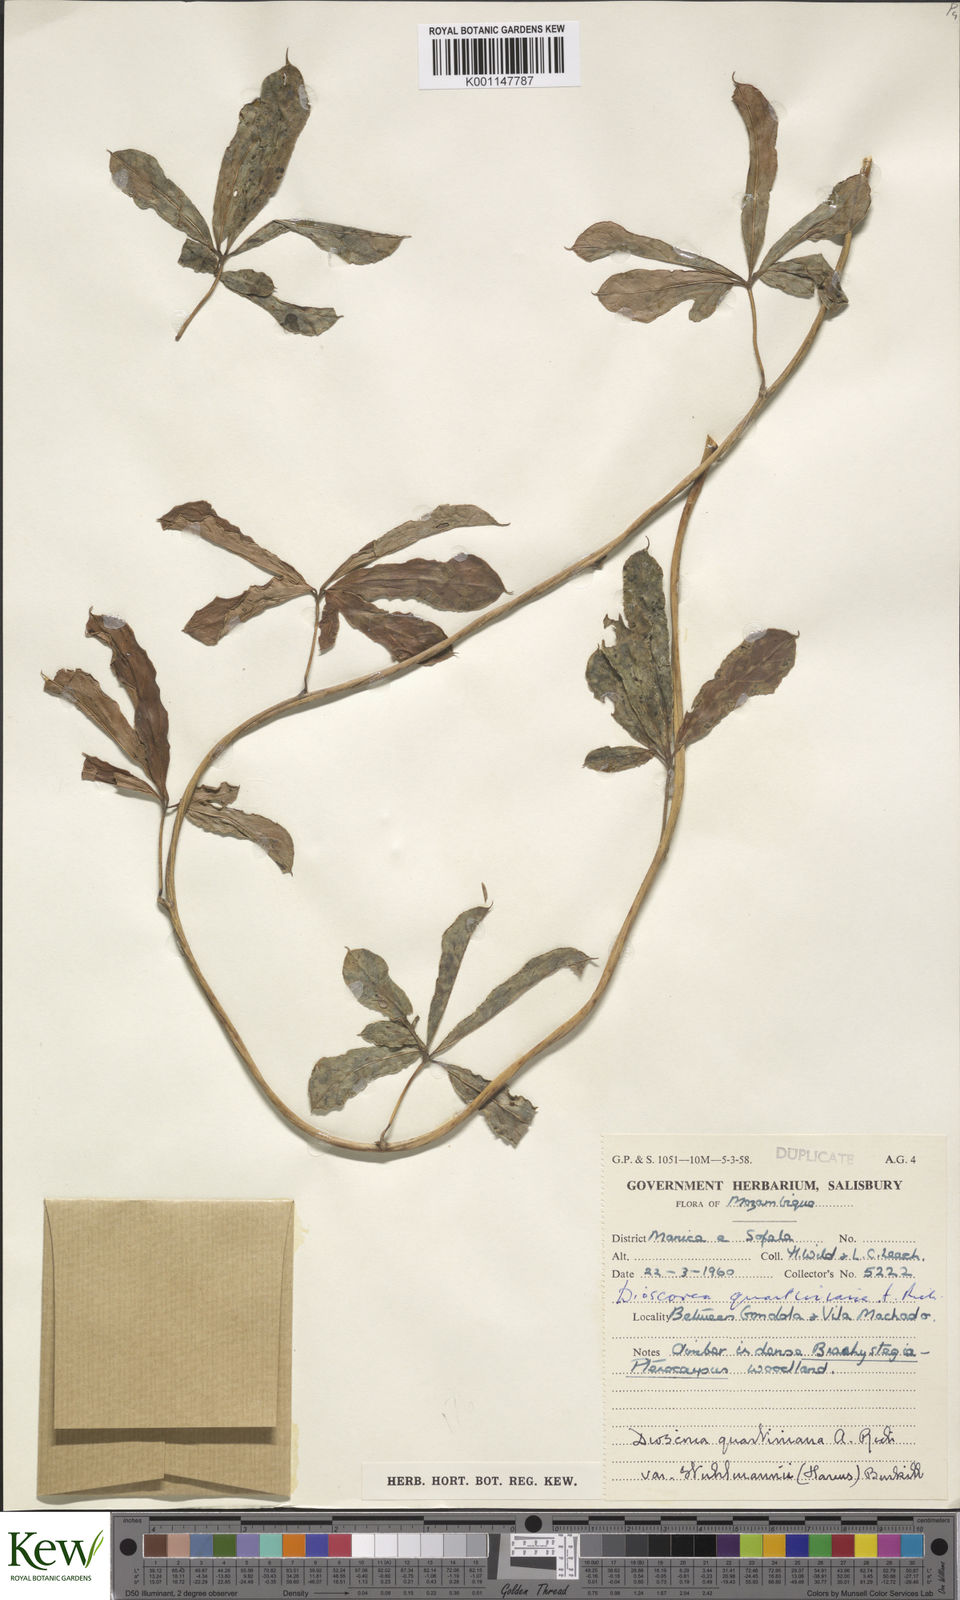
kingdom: Plantae
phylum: Tracheophyta
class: Liliopsida
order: Dioscoreales
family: Dioscoreaceae
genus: Dioscorea
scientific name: Dioscorea quartiniana
